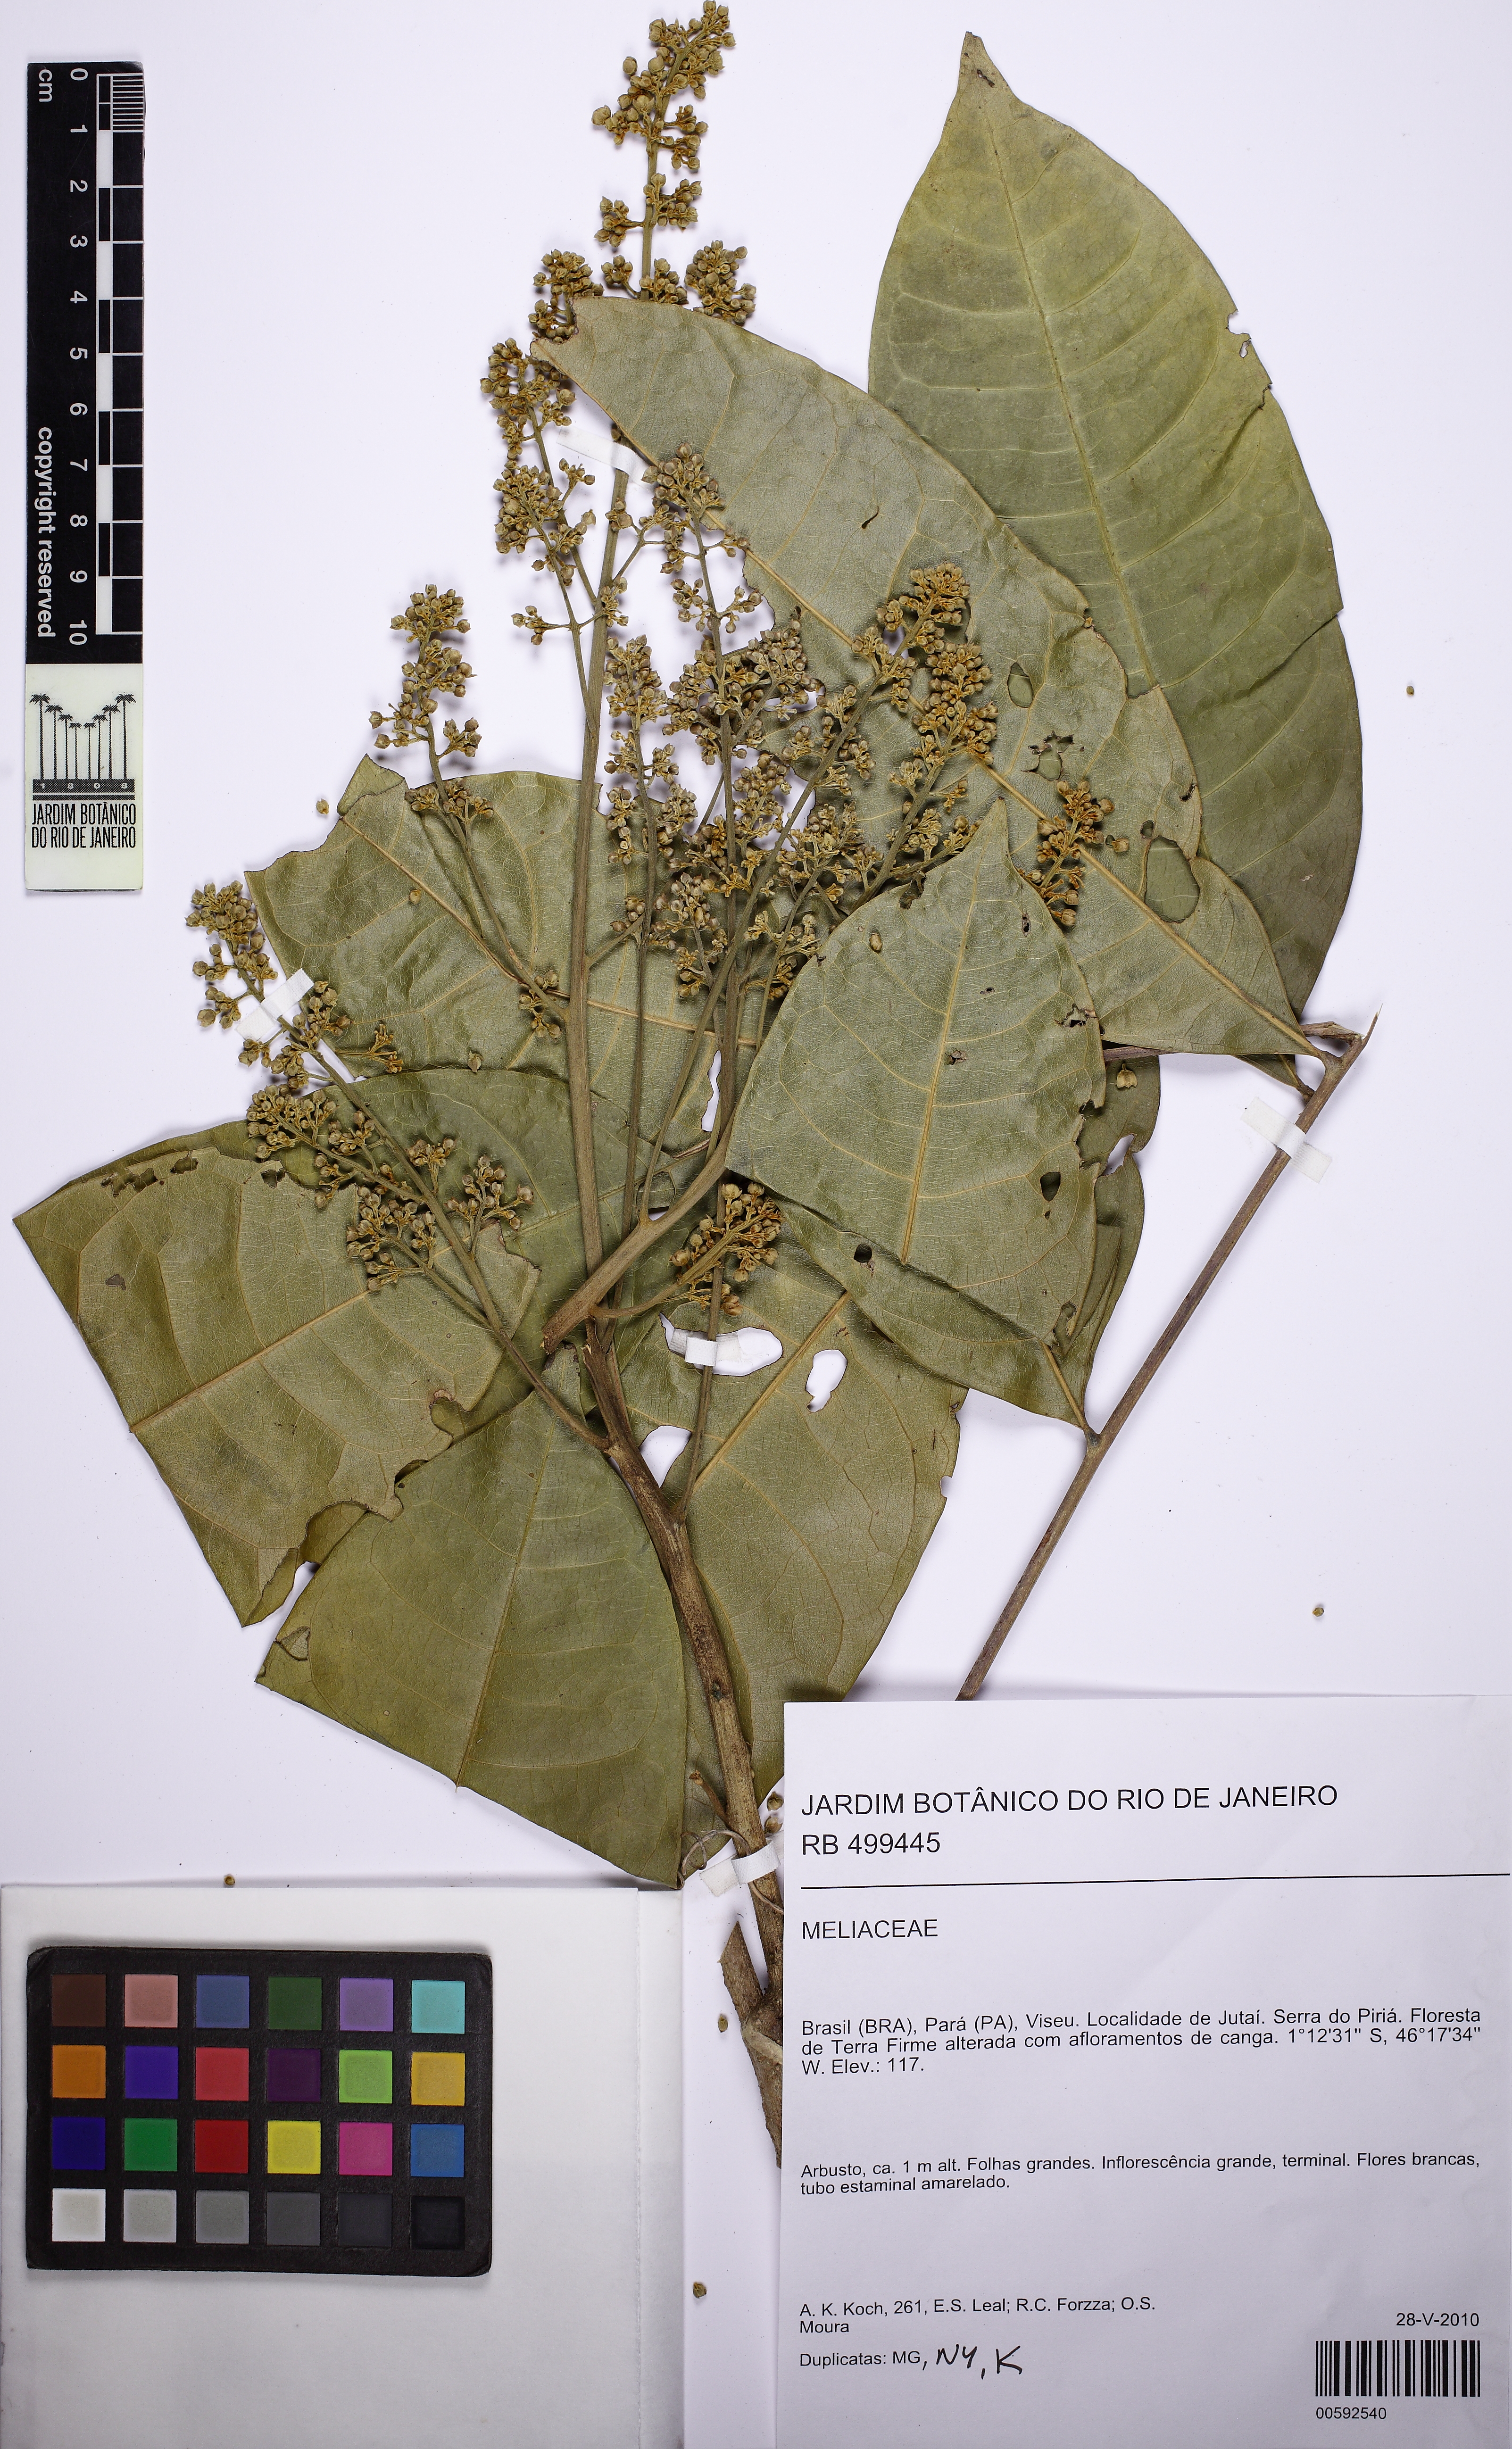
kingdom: Plantae
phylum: Tracheophyta
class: Magnoliopsida
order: Sapindales
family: Sapindaceae
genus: Pseudima
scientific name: Pseudima
